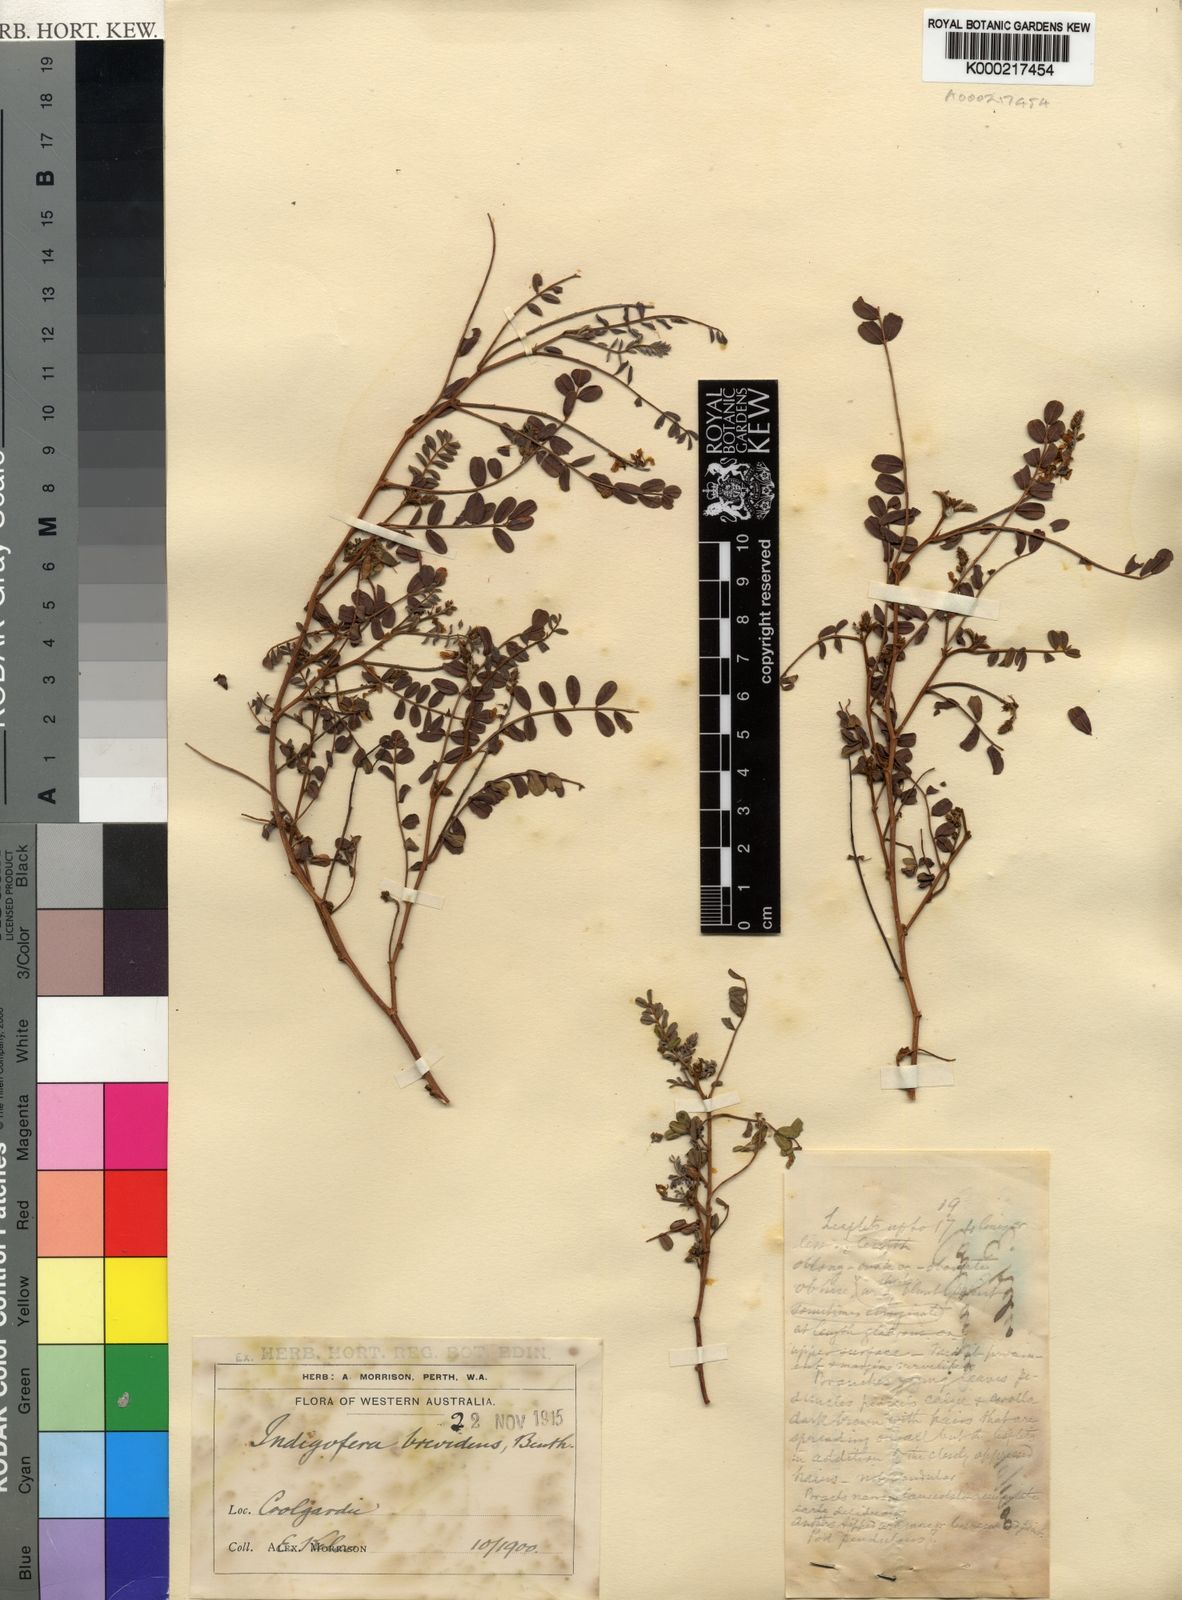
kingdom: Plantae
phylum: Tracheophyta
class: Magnoliopsida
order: Fabales
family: Fabaceae
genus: Indigofera
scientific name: Indigofera brevidens
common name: Desert indigo
